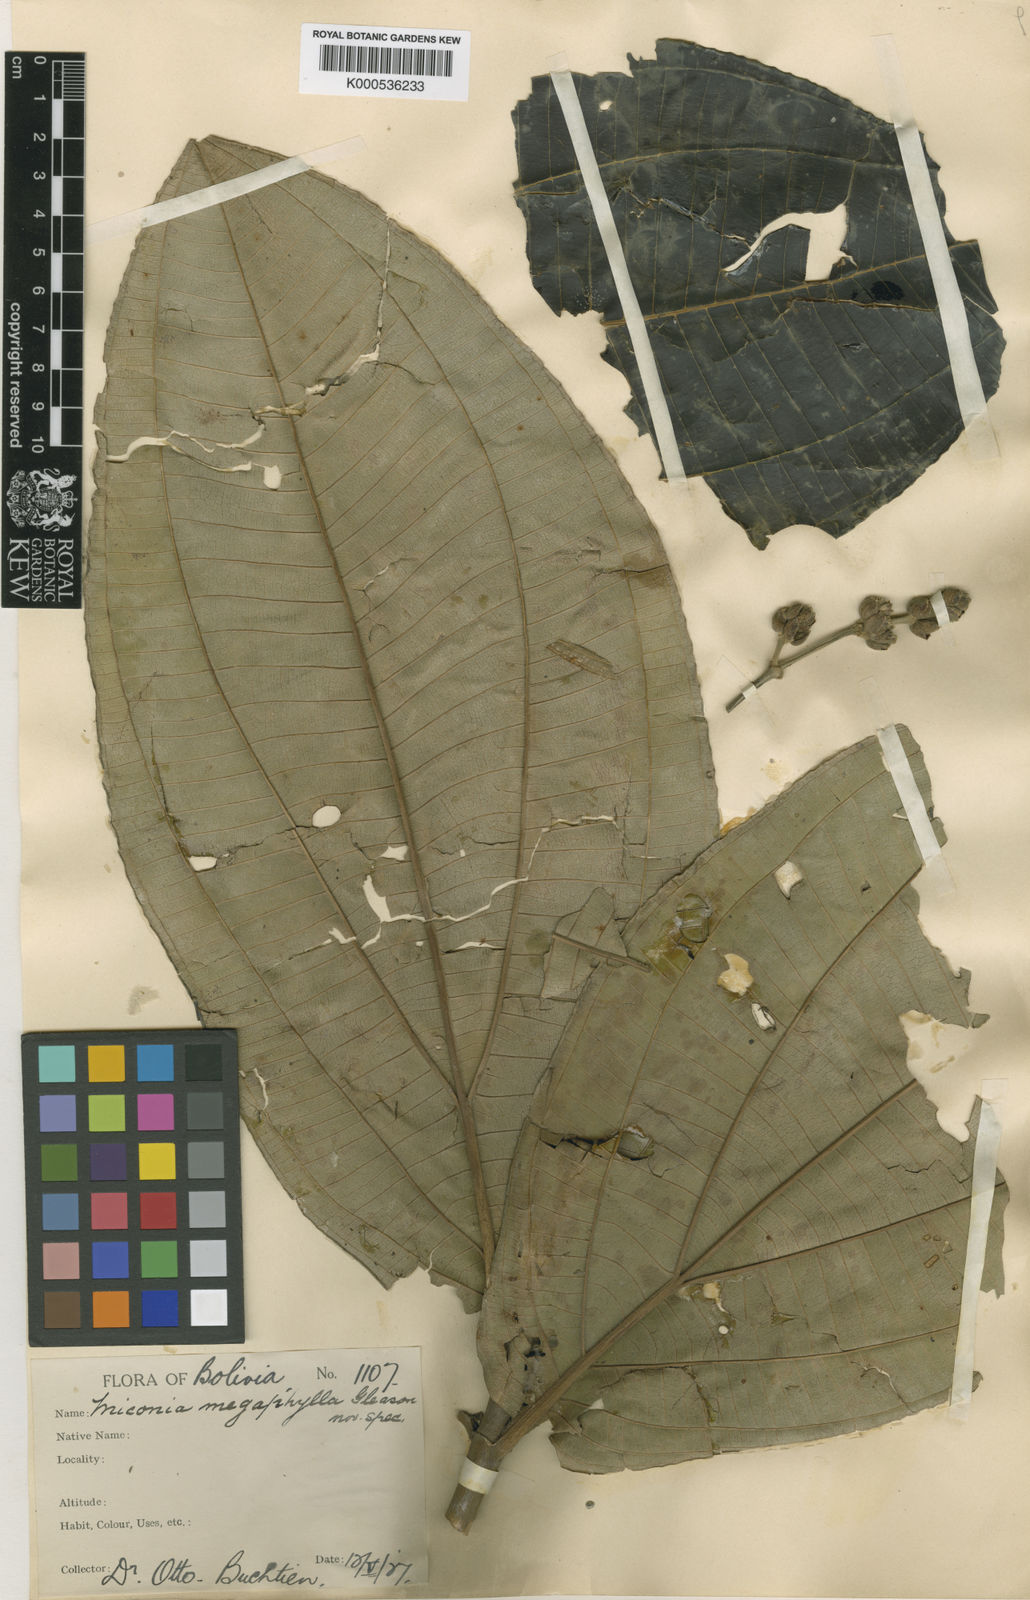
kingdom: Plantae
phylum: Tracheophyta
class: Magnoliopsida
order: Myrtales
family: Melastomataceae
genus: Miconia
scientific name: Miconia ampla
